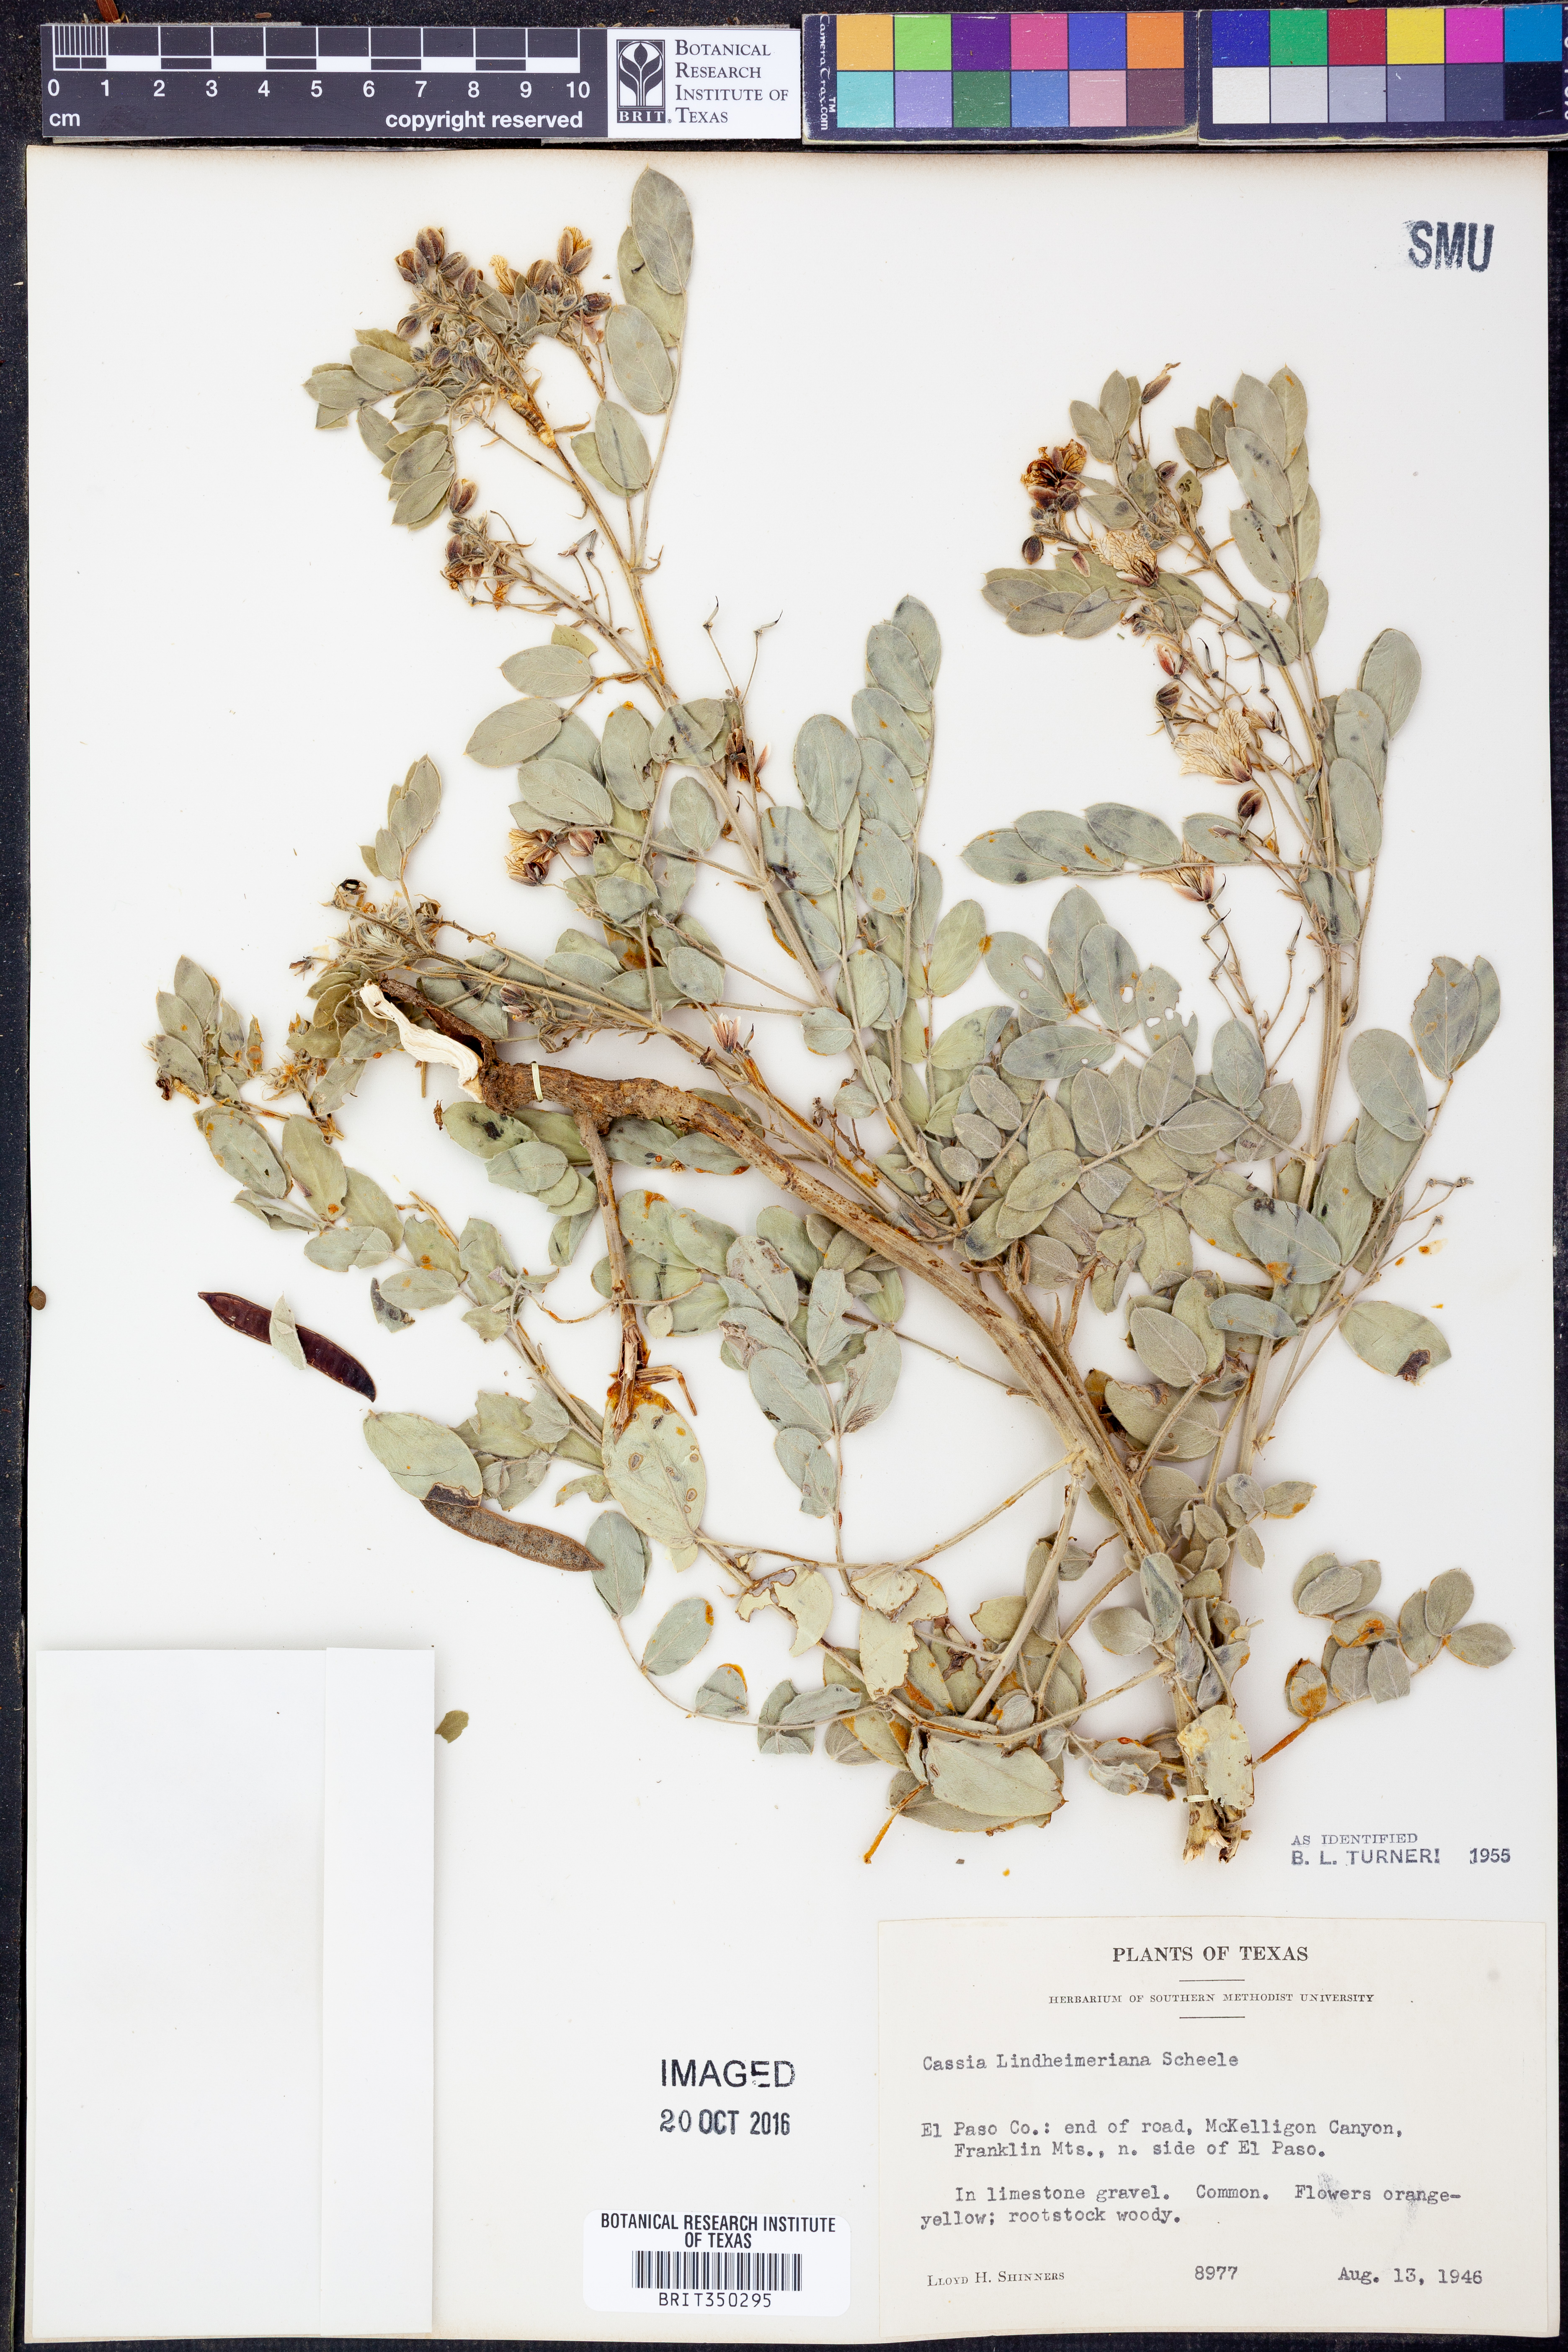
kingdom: Plantae
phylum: Tracheophyta
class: Magnoliopsida
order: Fabales
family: Fabaceae
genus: Senna
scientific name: Senna lindheimeriana
